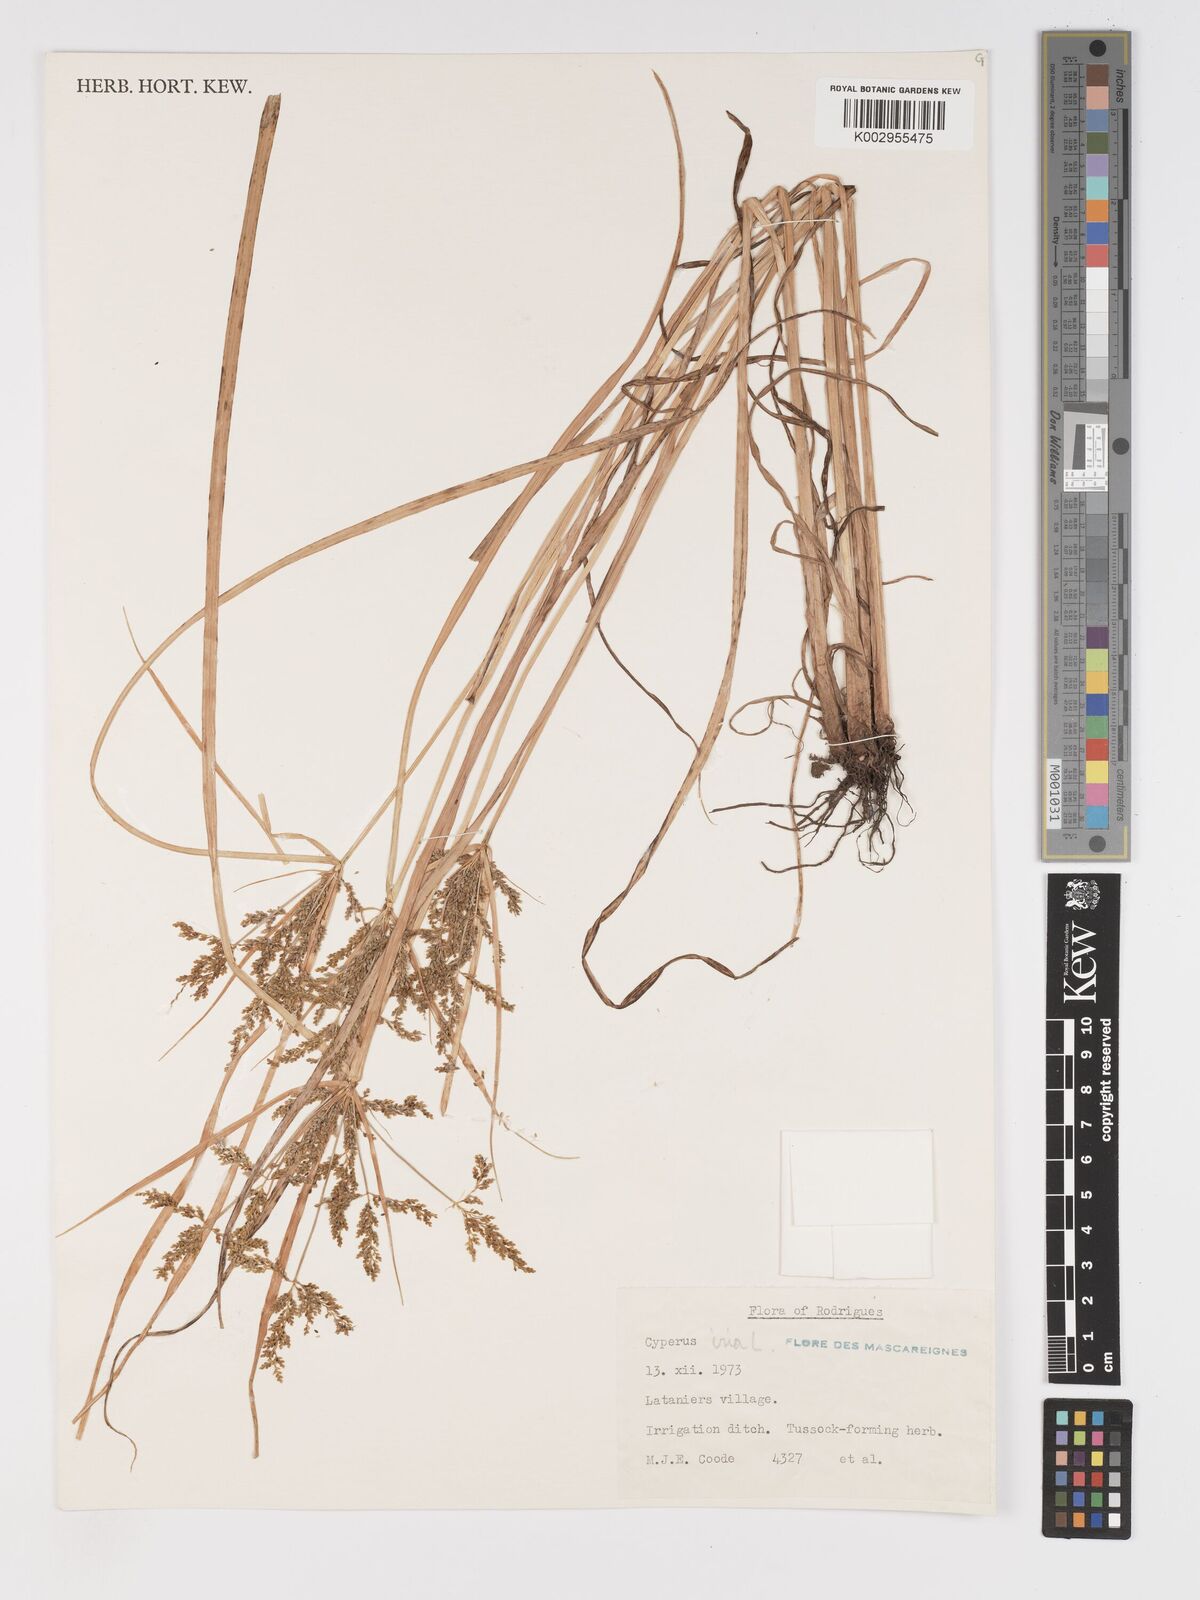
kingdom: Plantae
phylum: Tracheophyta
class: Liliopsida
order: Poales
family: Cyperaceae
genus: Cyperus
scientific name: Cyperus iria
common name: Ricefield flatsedge
